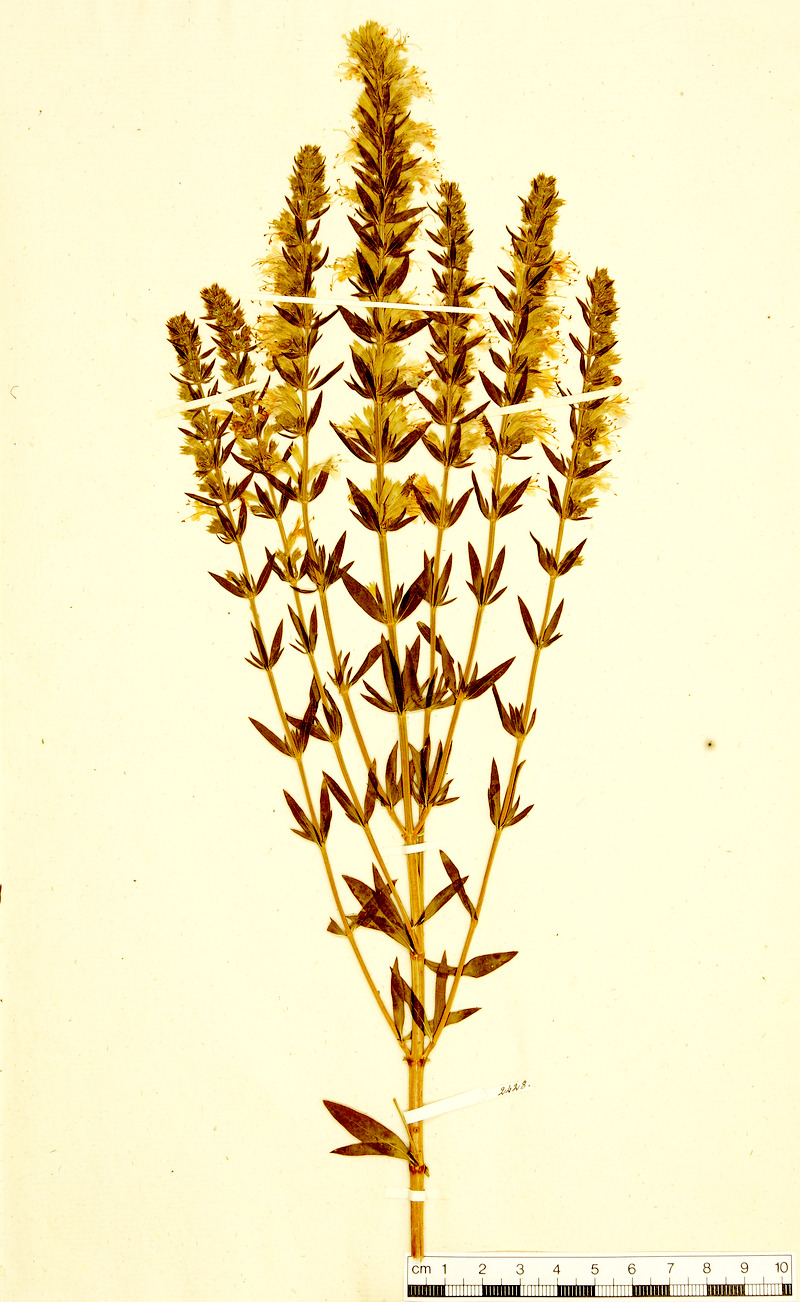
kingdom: Plantae
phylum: Tracheophyta
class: Magnoliopsida
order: Lamiales
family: Lamiaceae
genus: Hyssopus
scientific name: Hyssopus officinalis
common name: Hyssop
